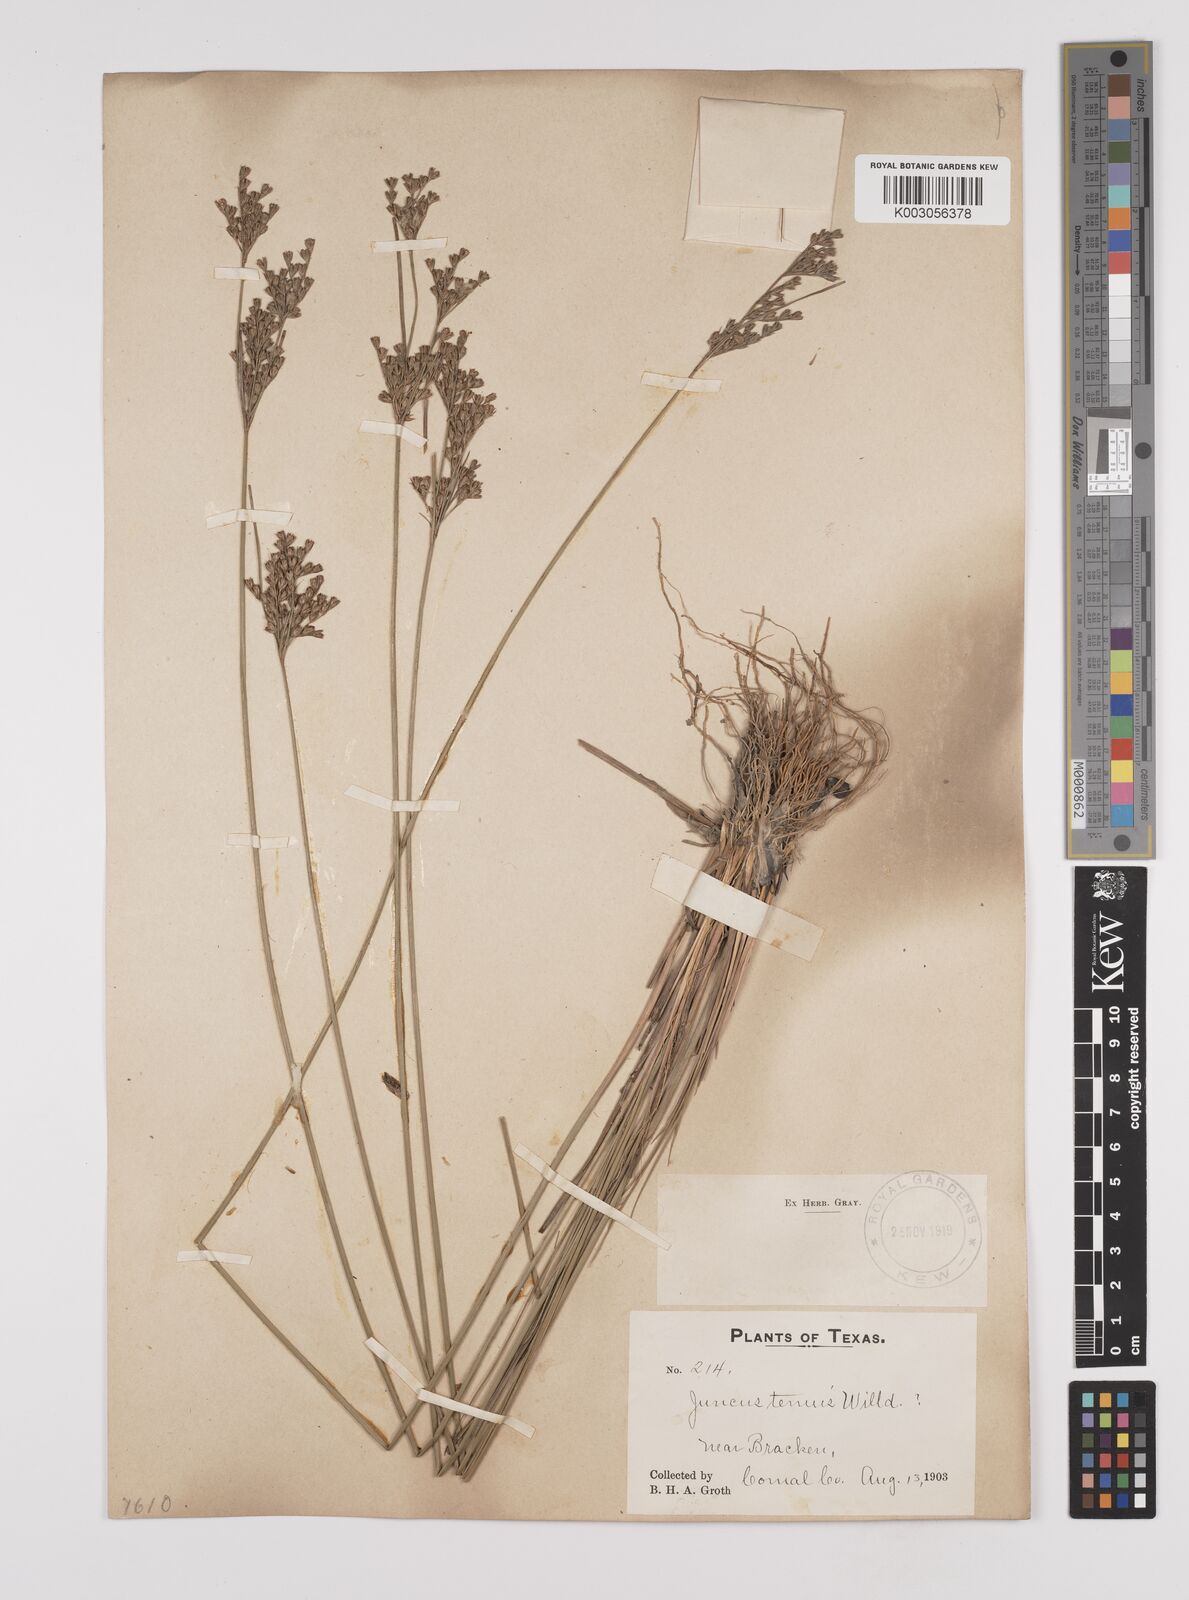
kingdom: Plantae
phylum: Tracheophyta
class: Liliopsida
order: Poales
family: Juncaceae
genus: Juncus
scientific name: Juncus tenuis
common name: Slender rush
